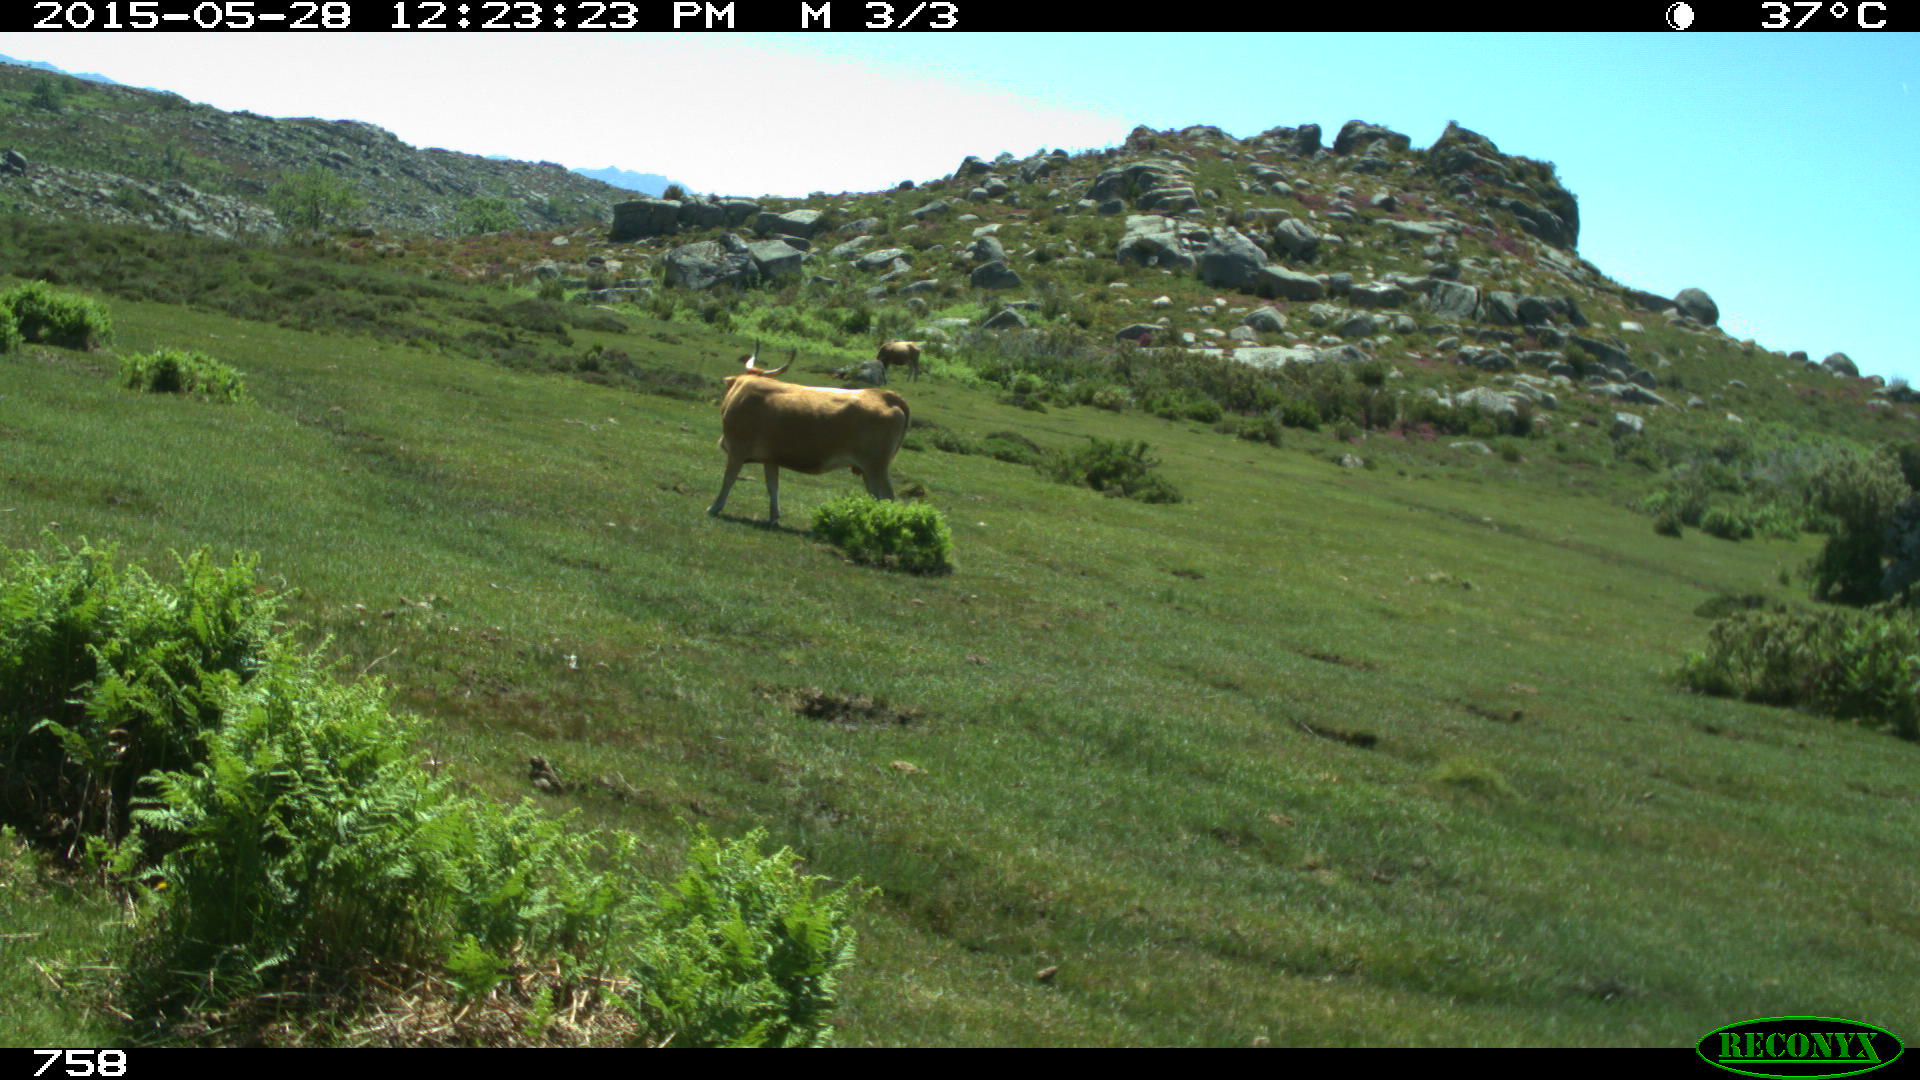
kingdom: Animalia
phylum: Chordata
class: Mammalia
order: Artiodactyla
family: Bovidae
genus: Bos
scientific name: Bos taurus
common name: Domesticated cattle
